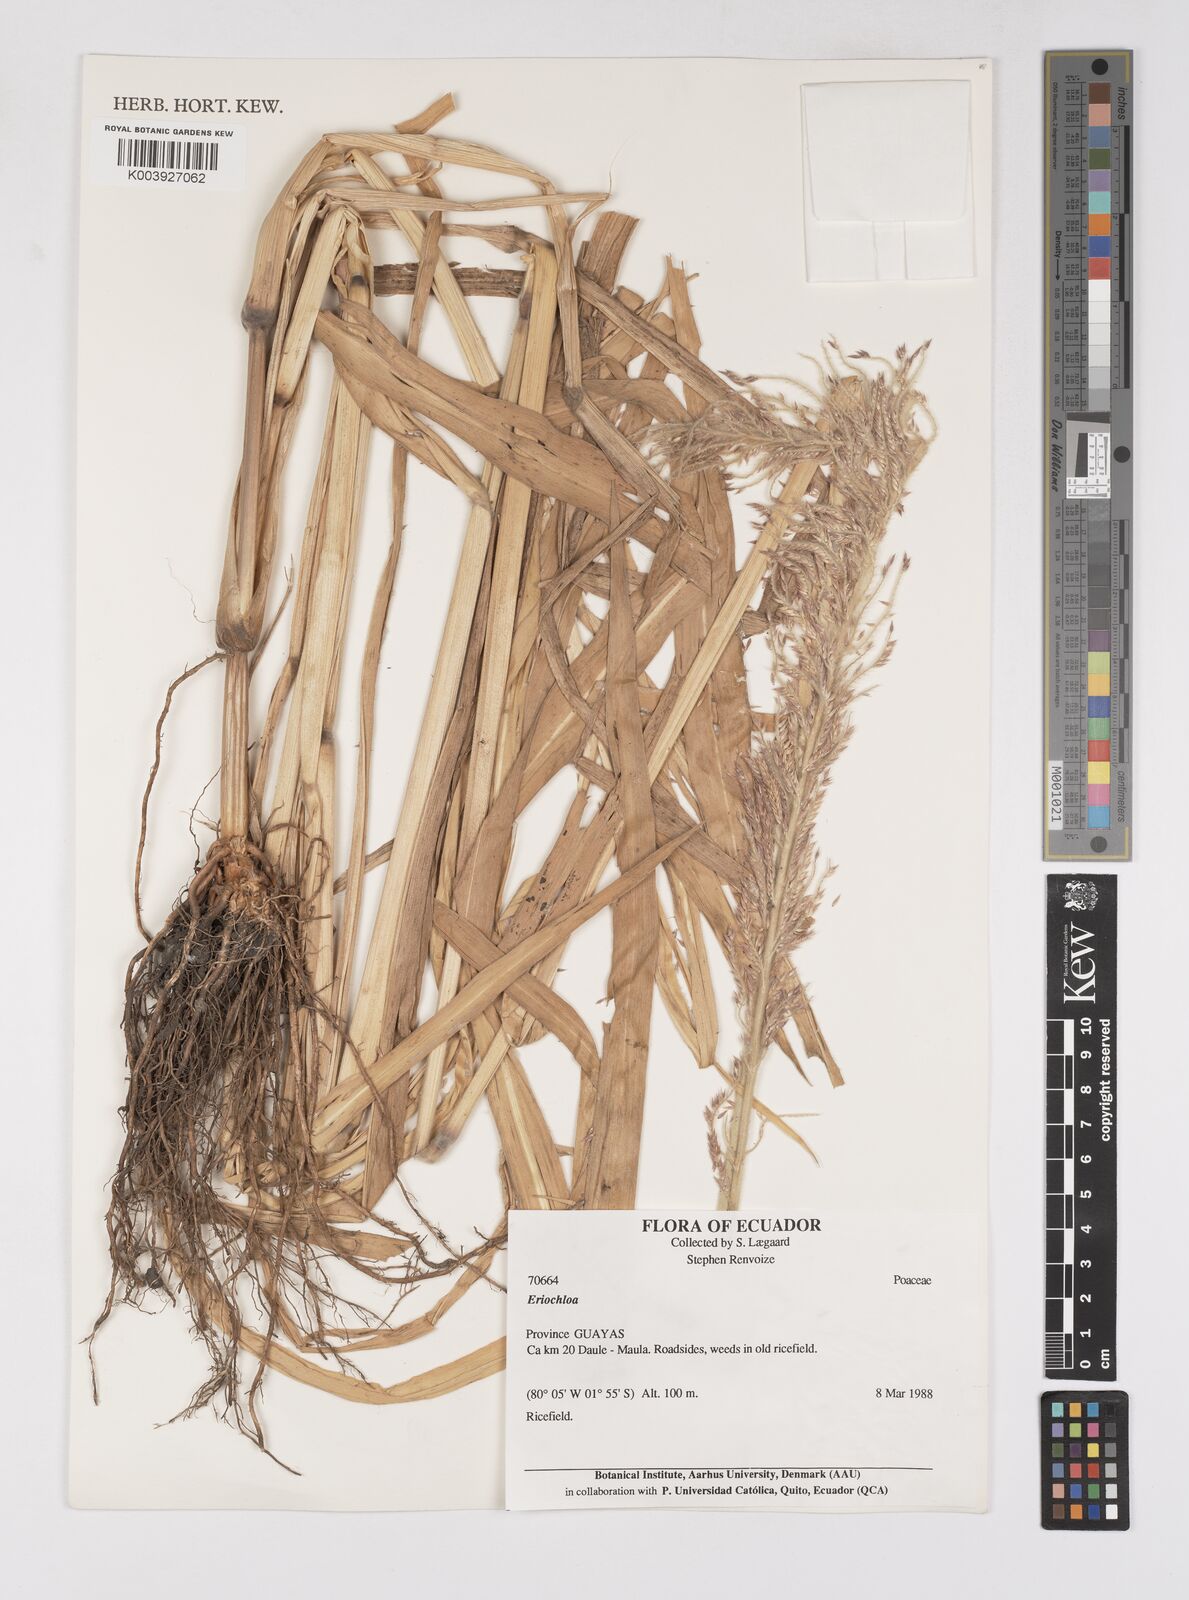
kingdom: Plantae
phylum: Tracheophyta
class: Liliopsida
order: Poales
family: Poaceae
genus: Eriochloa
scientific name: Eriochloa stevensii
